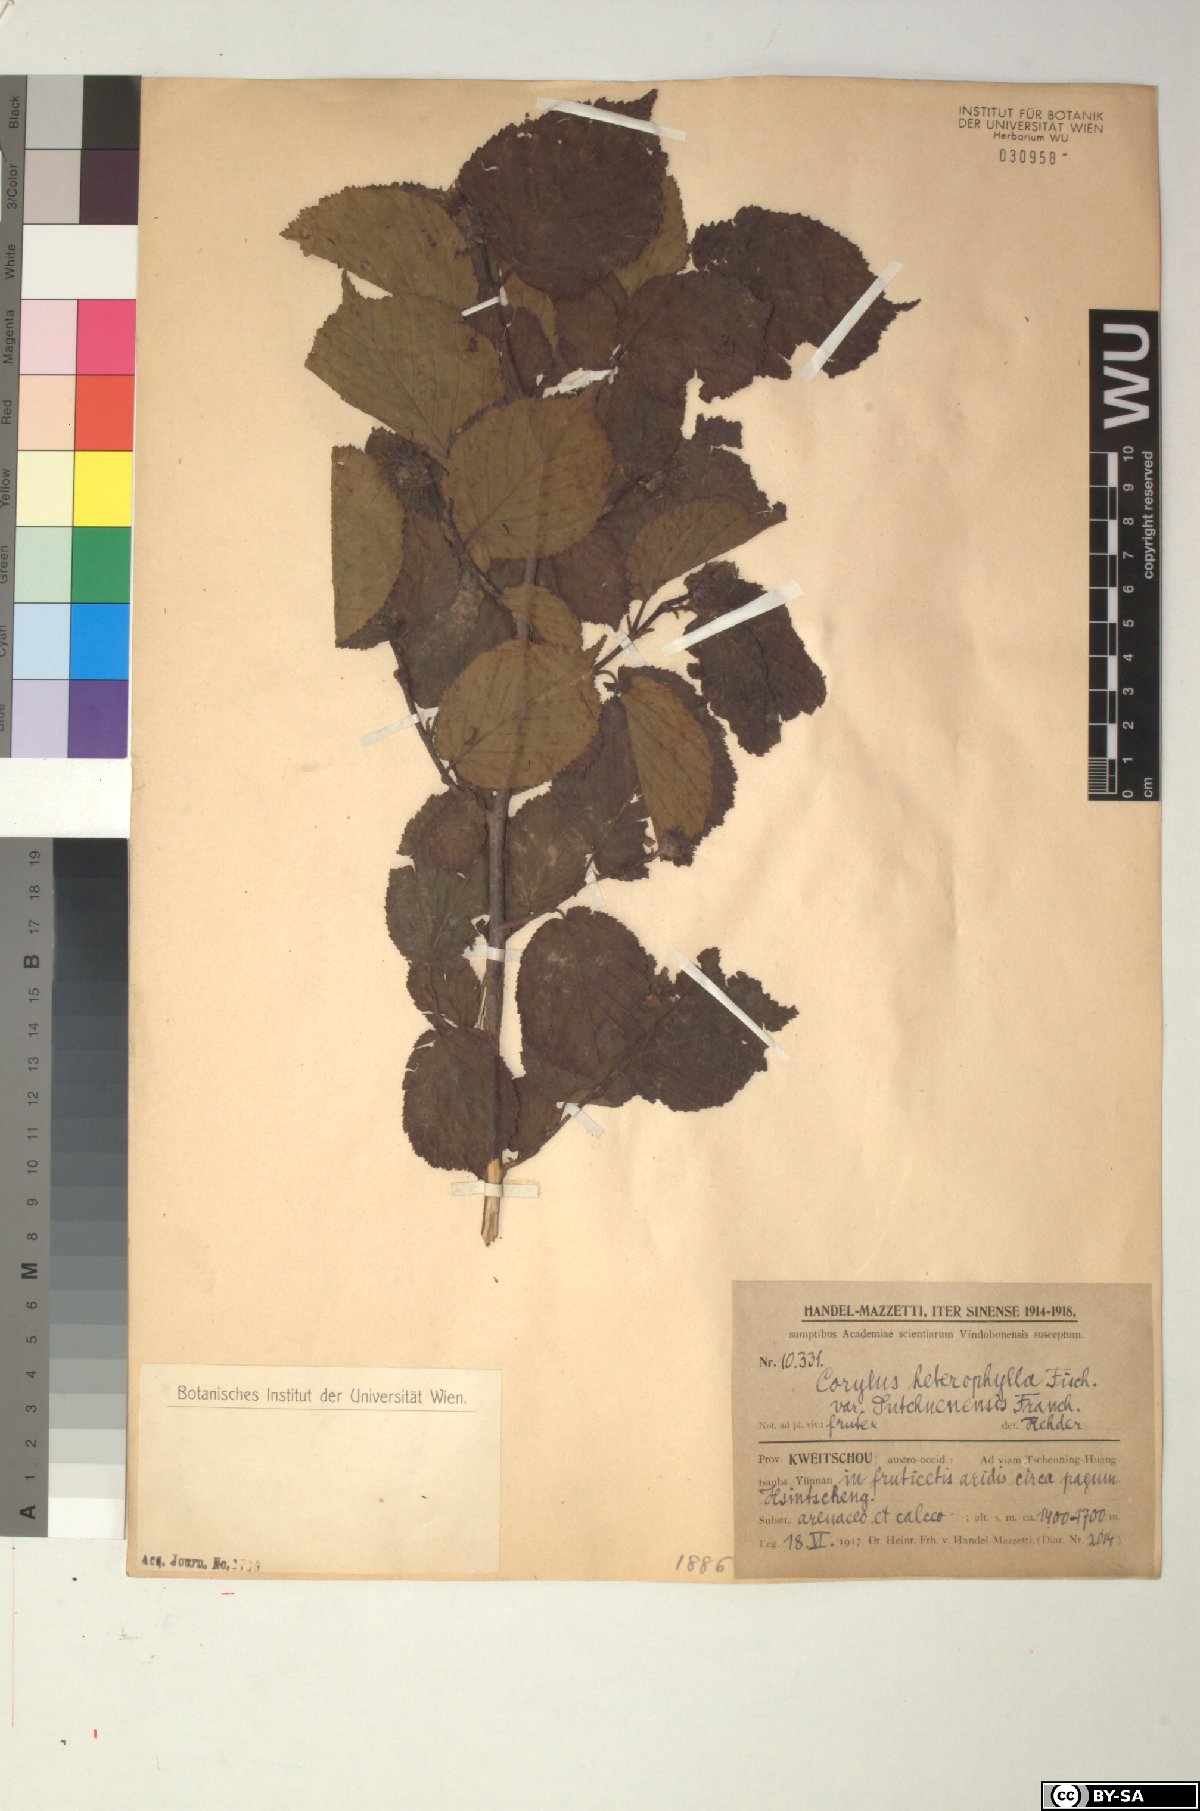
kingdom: Plantae
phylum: Tracheophyta
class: Magnoliopsida
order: Fagales
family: Betulaceae
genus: Corylus
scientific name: Corylus heterophylla
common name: Siberian hazelnut
